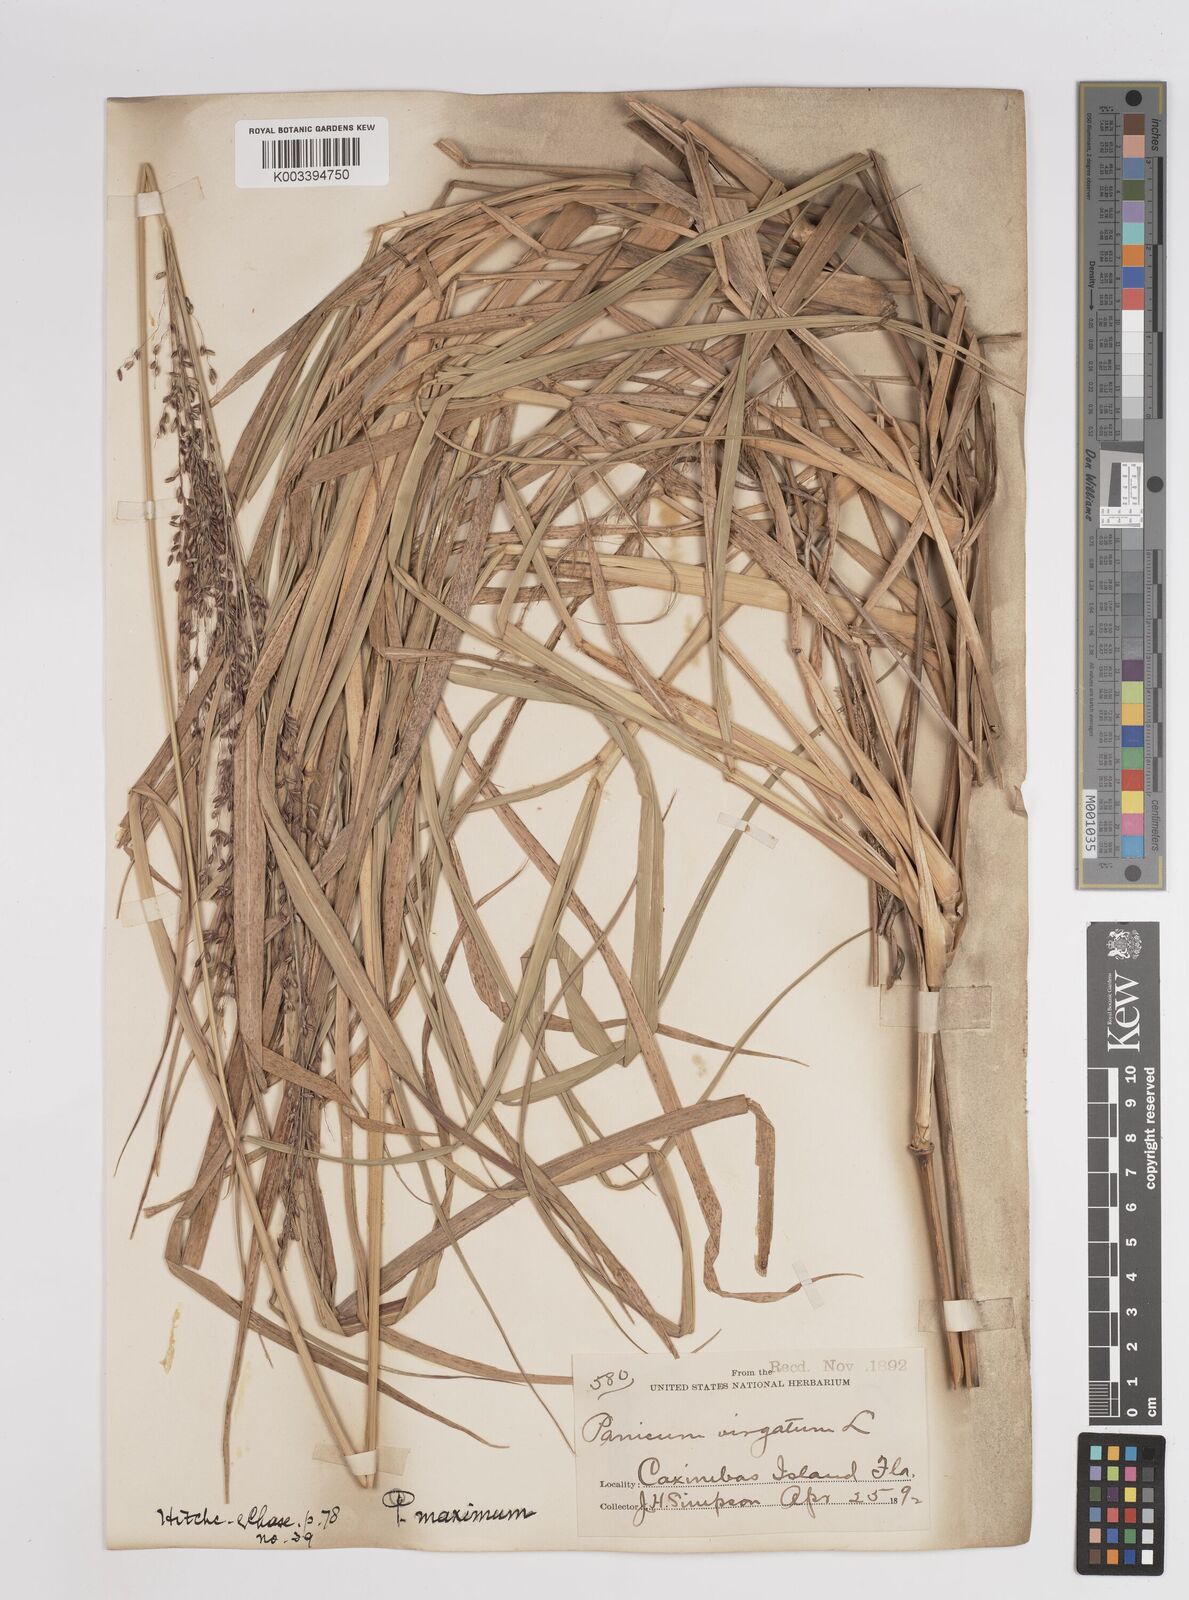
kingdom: Plantae
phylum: Tracheophyta
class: Liliopsida
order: Poales
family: Poaceae
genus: Megathyrsus
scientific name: Megathyrsus maximus
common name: Guineagrass
